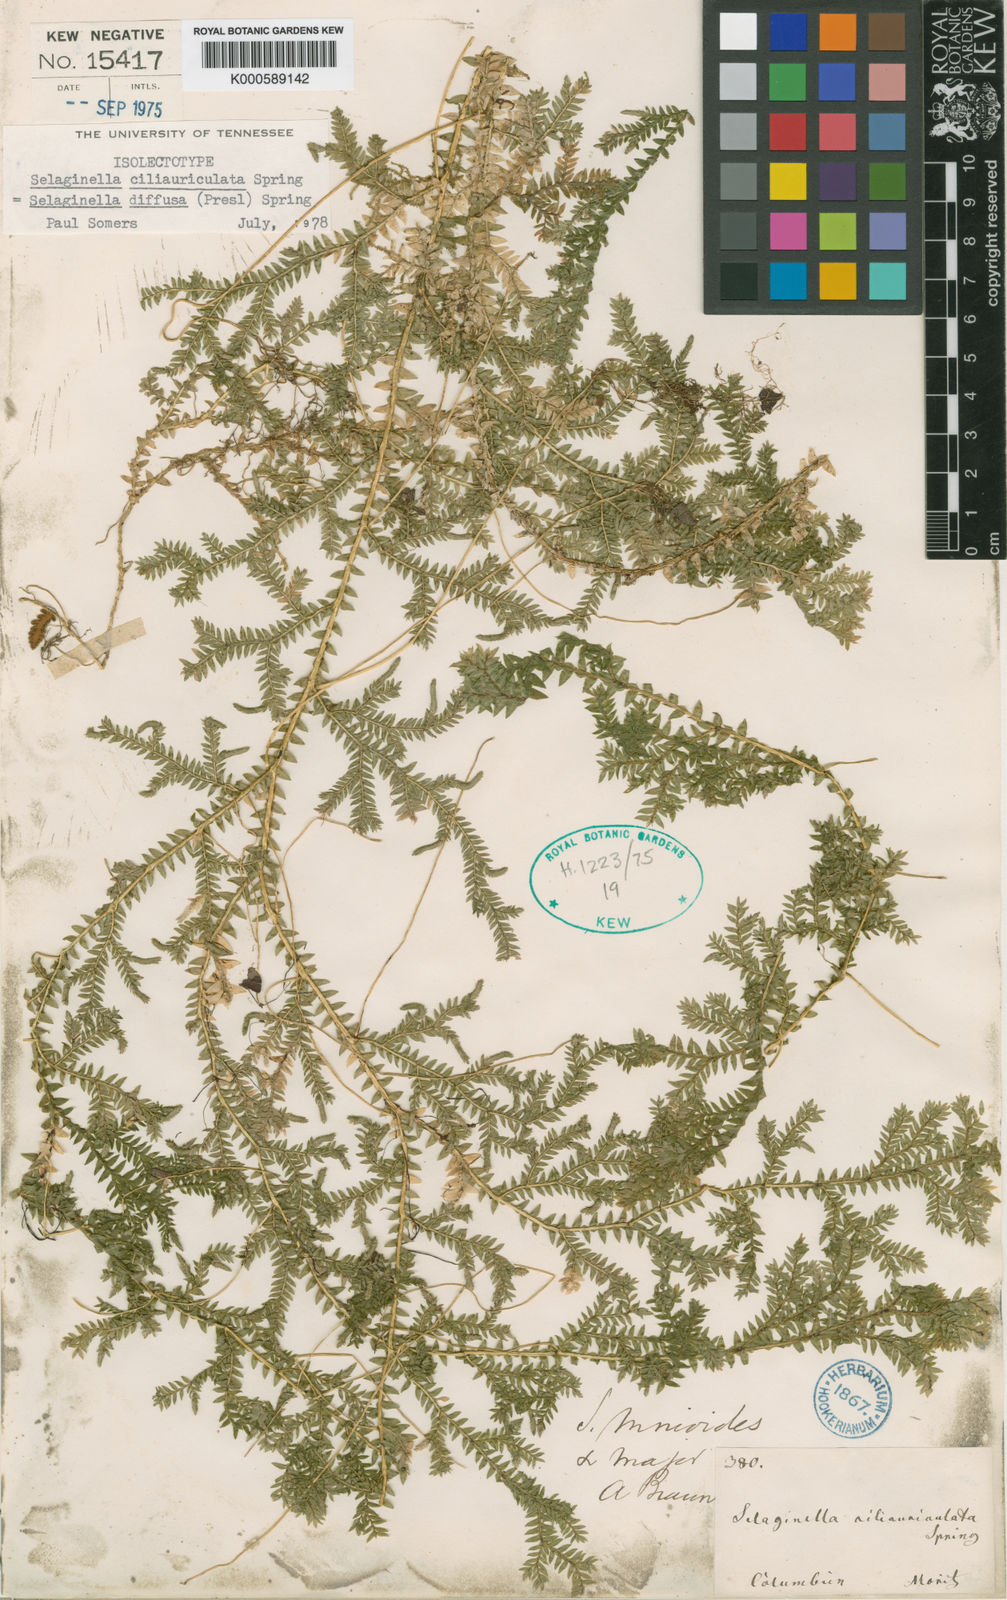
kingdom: Plantae
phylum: Tracheophyta
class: Lycopodiopsida
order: Selaginellales
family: Selaginellaceae
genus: Selaginella
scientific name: Selaginella diffusa
